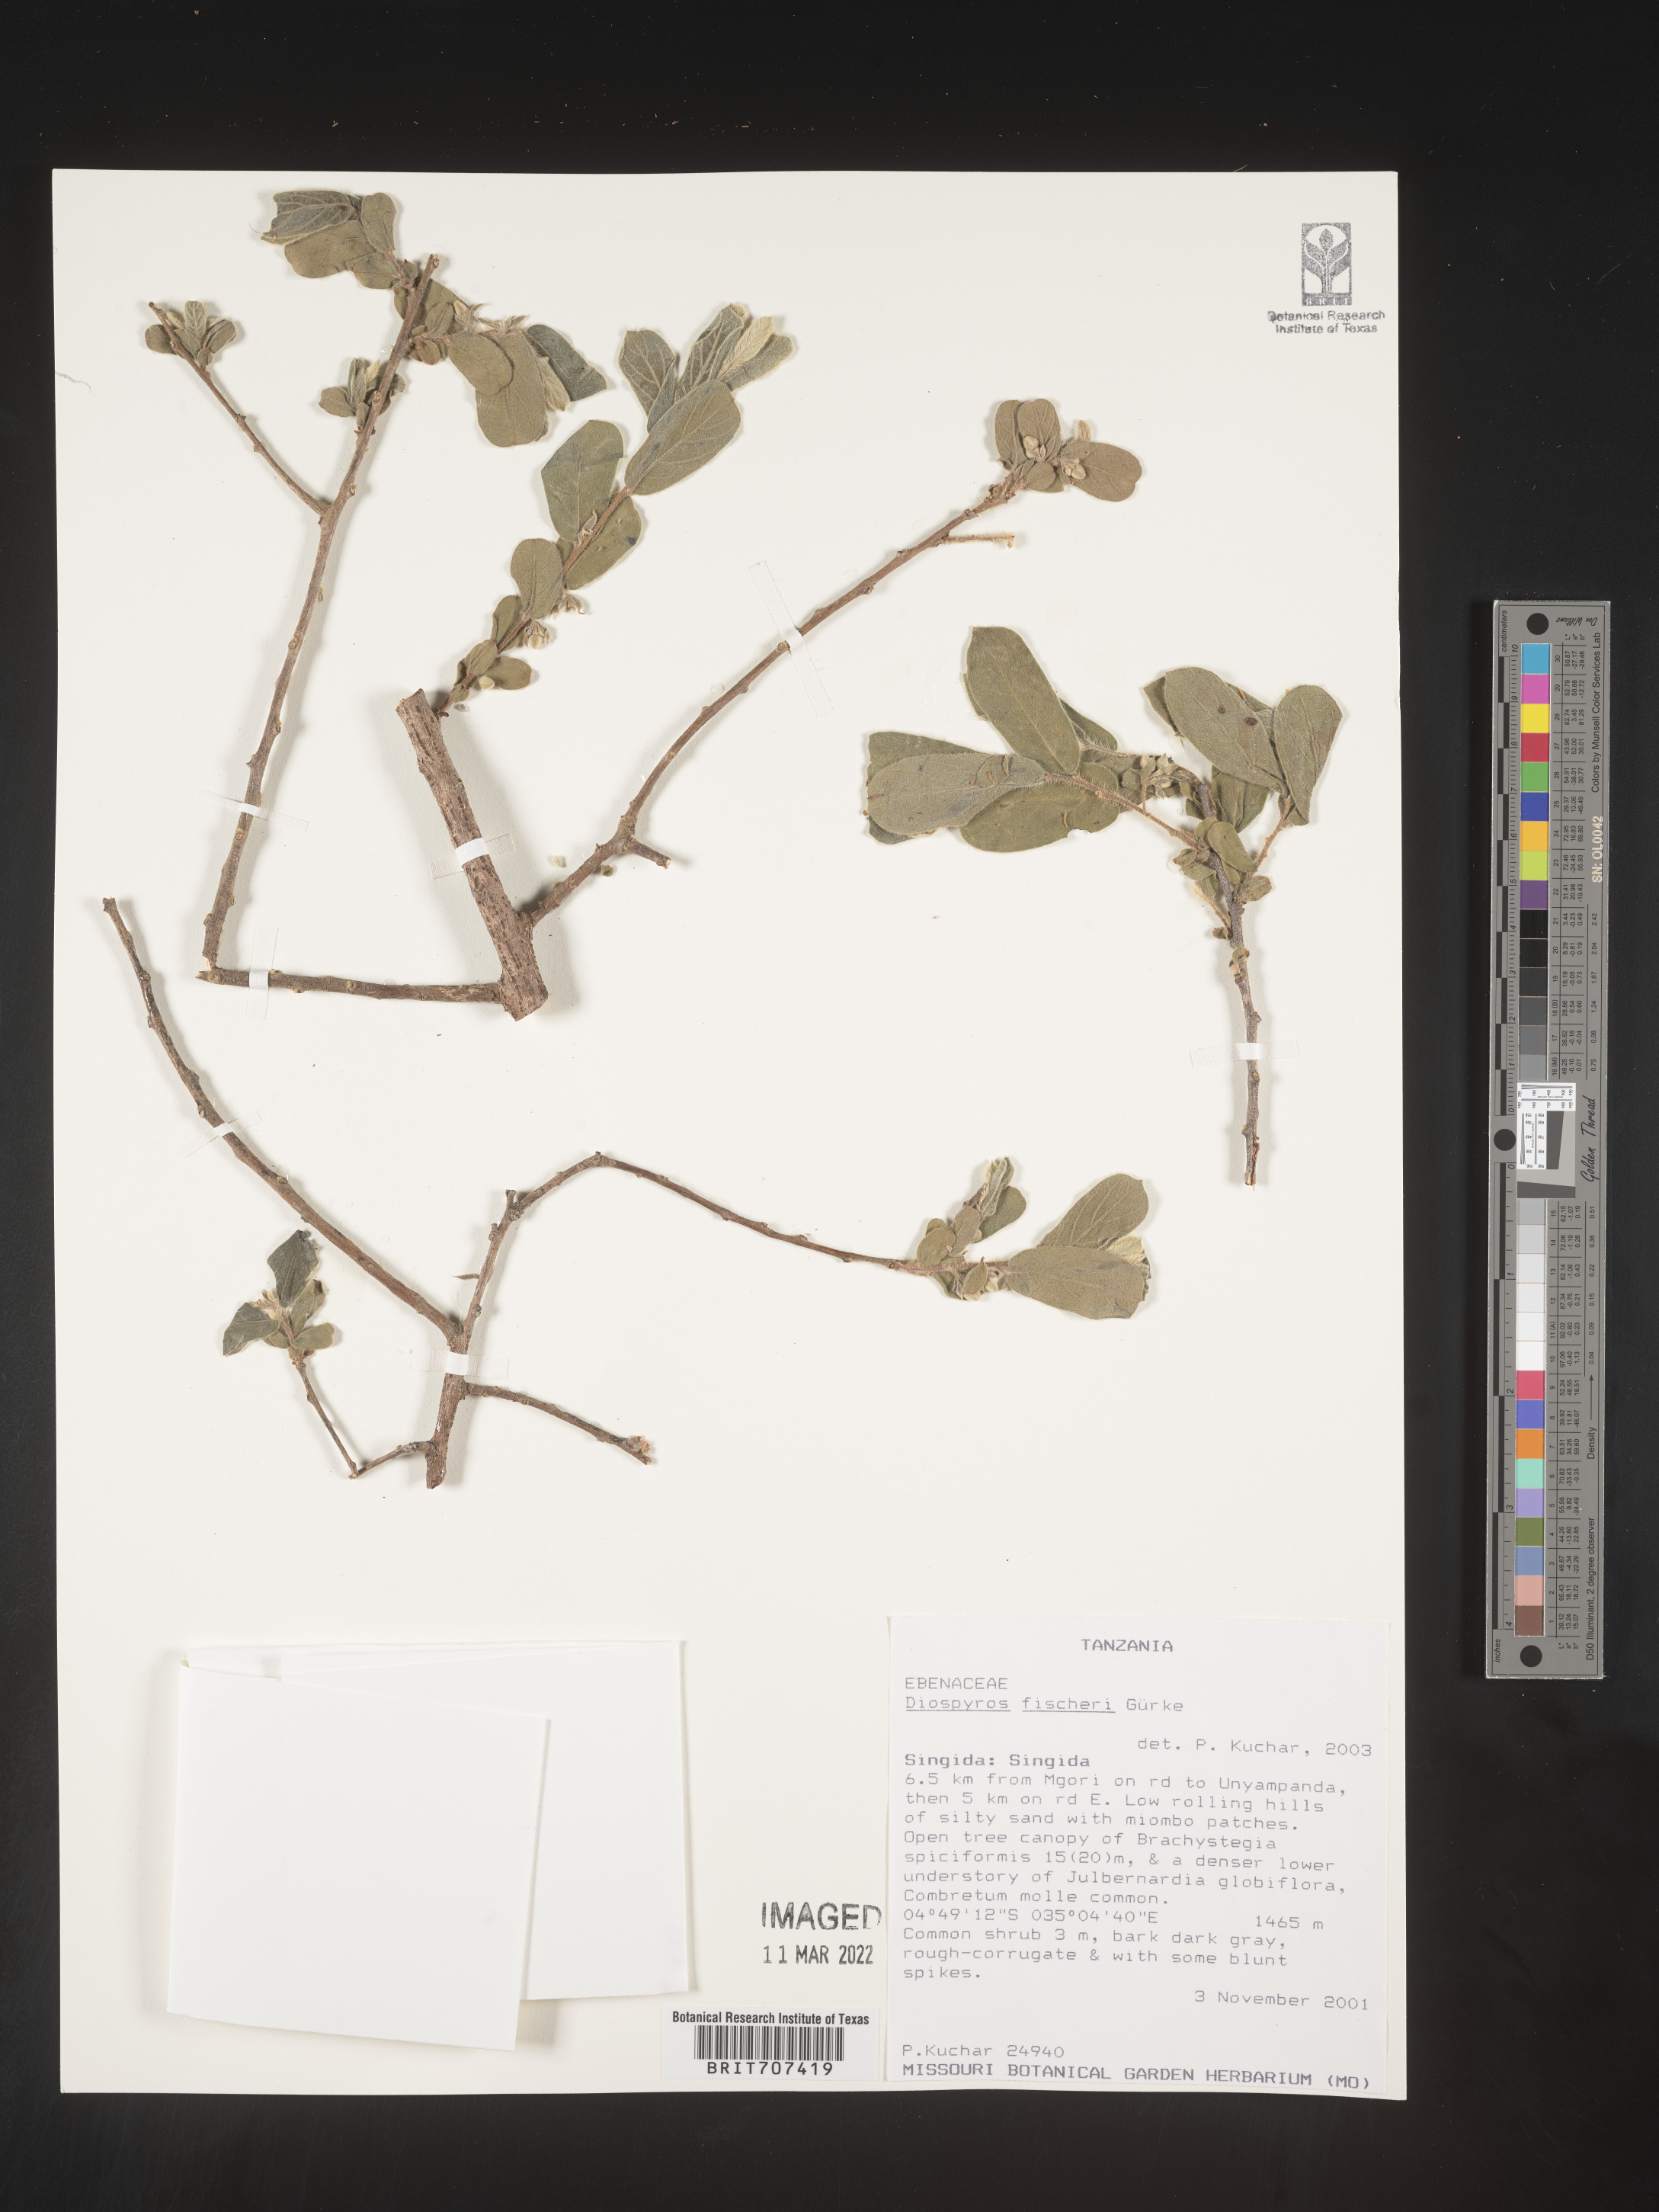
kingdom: Plantae
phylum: Tracheophyta
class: Magnoliopsida
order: Ericales
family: Ebenaceae
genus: Diospyros
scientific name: Diospyros
